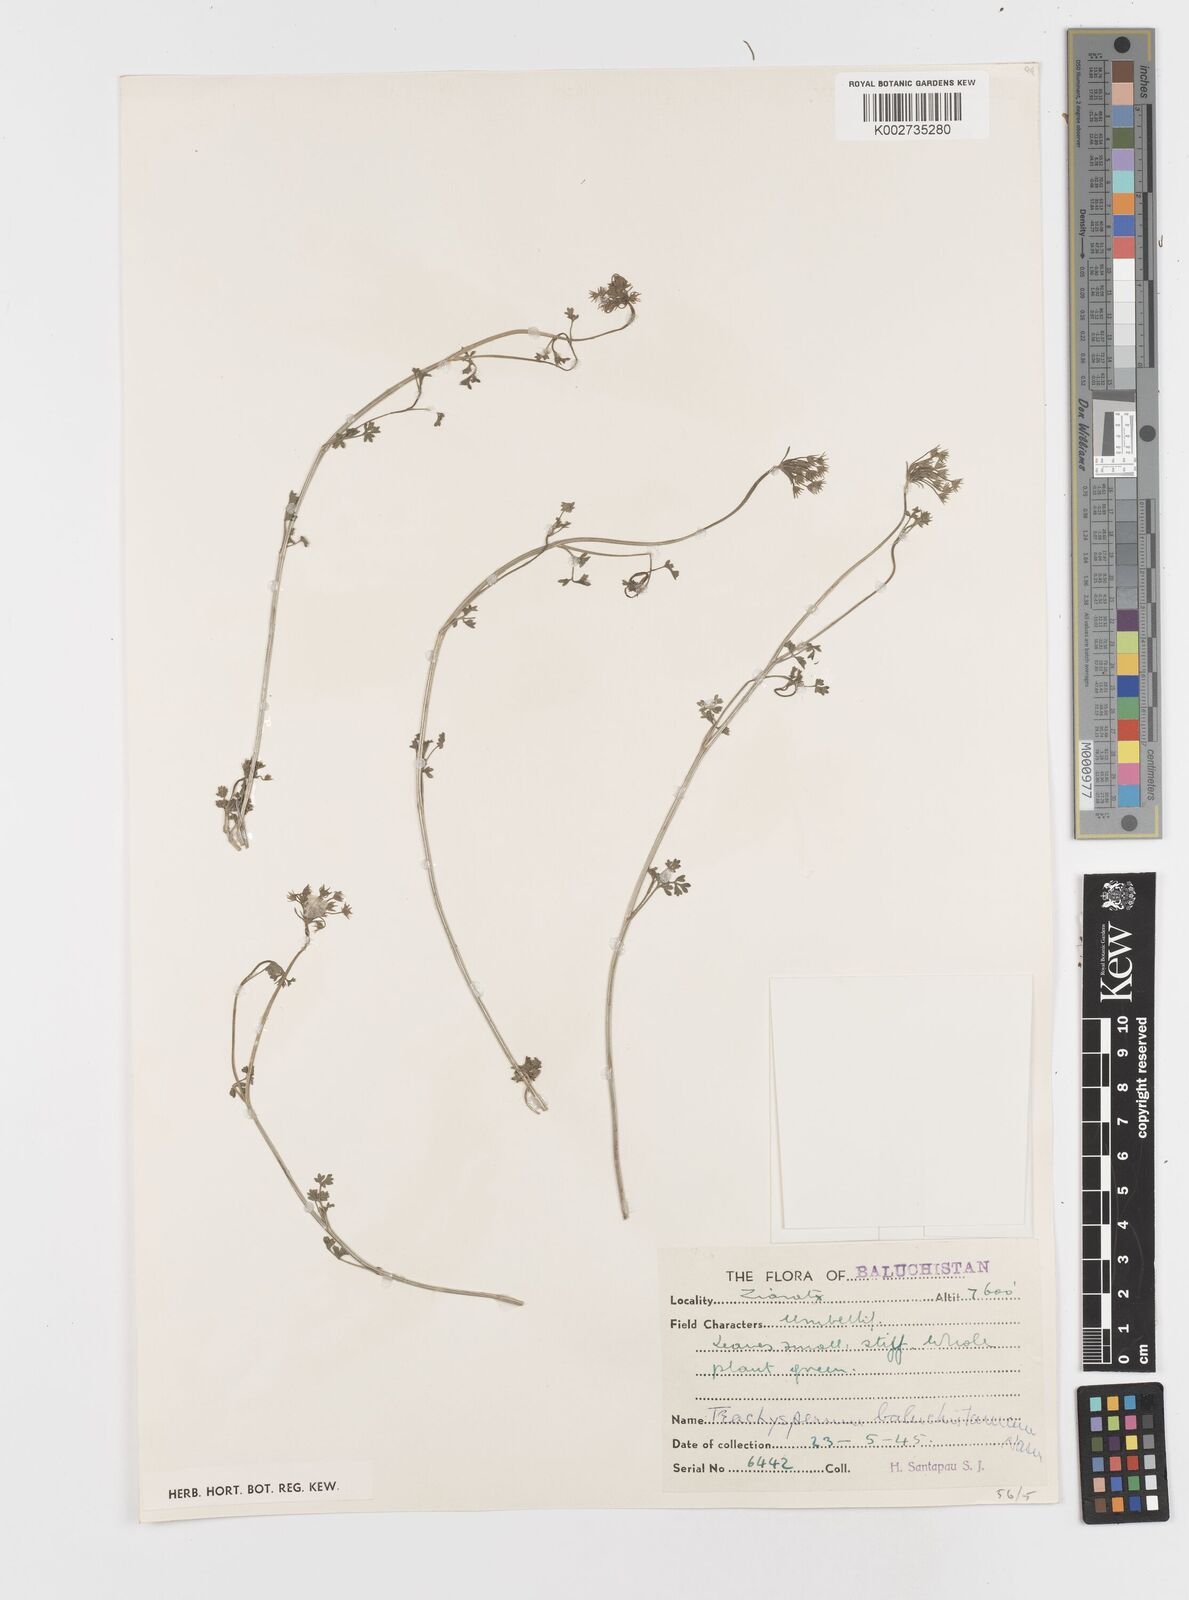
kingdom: Plantae
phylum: Tracheophyta
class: Magnoliopsida
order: Apiales
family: Apiaceae
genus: Trachyspermum
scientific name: Trachyspermum baluchistanicum
